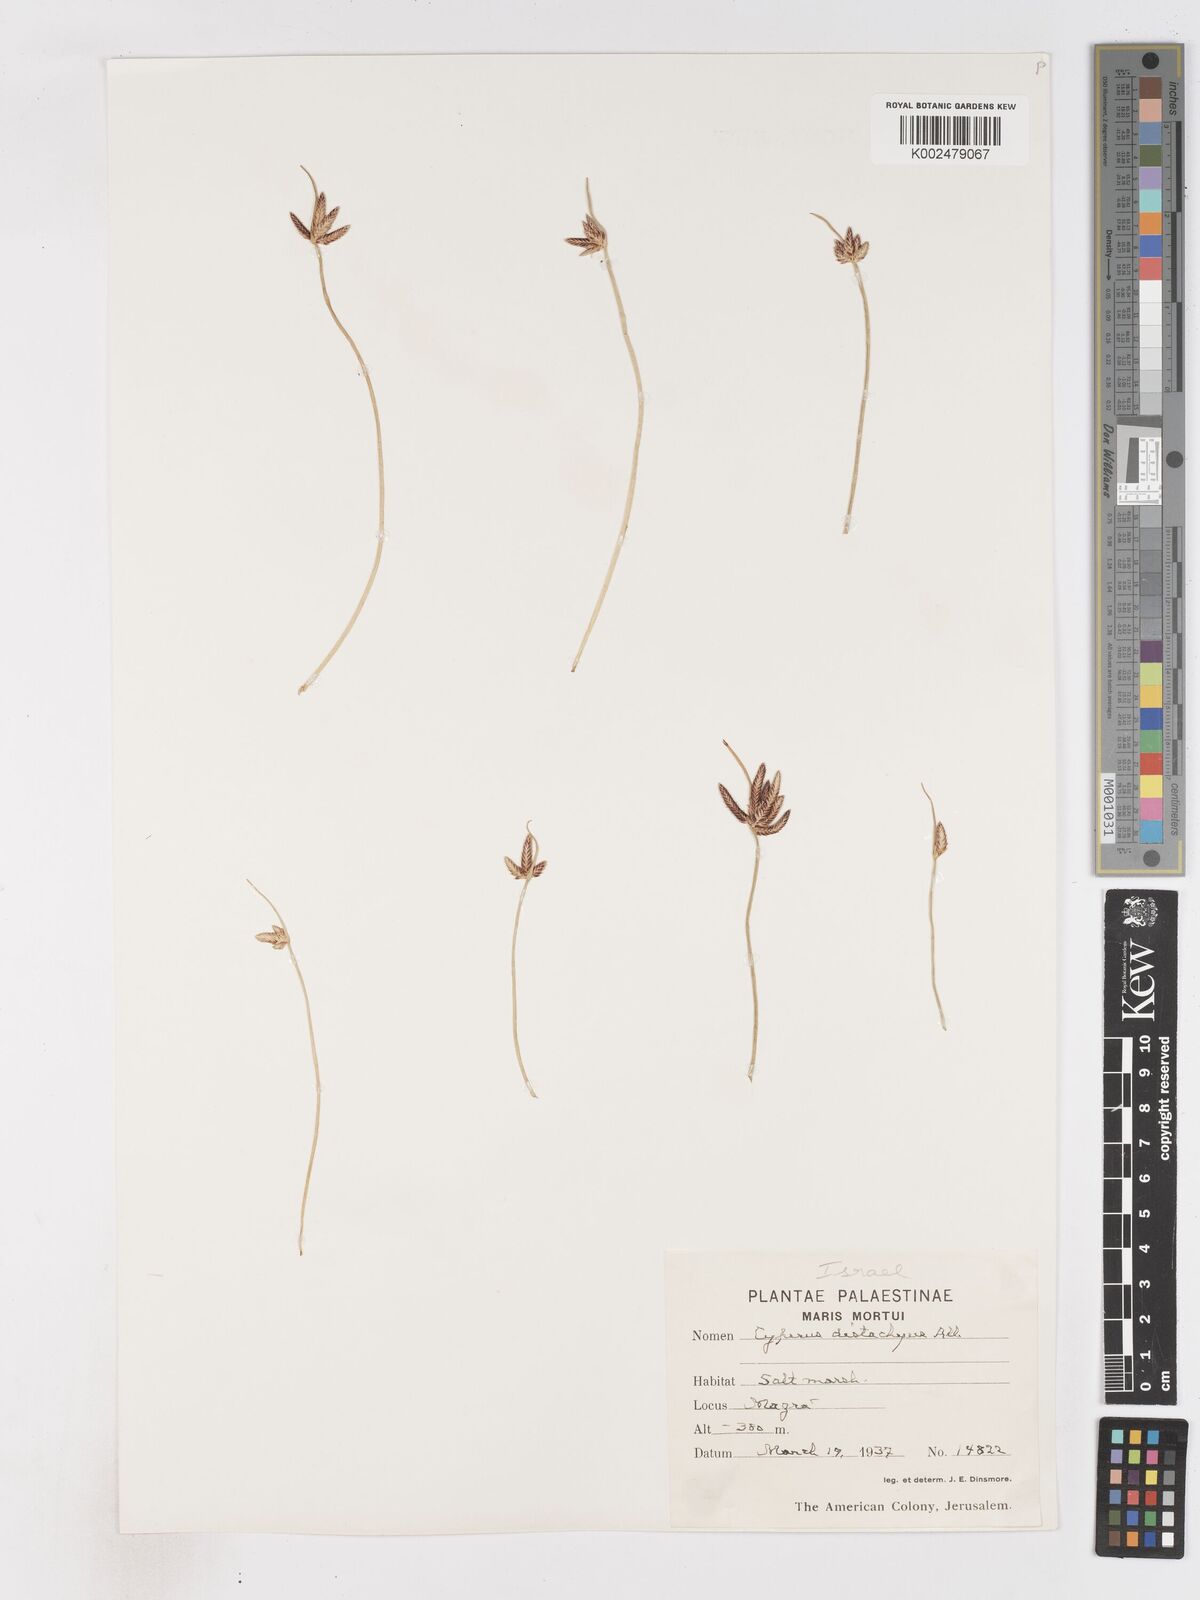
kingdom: Plantae
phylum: Tracheophyta
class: Liliopsida
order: Poales
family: Cyperaceae
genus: Cyperus
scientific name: Cyperus laevigatus
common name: Smooth flat sedge
